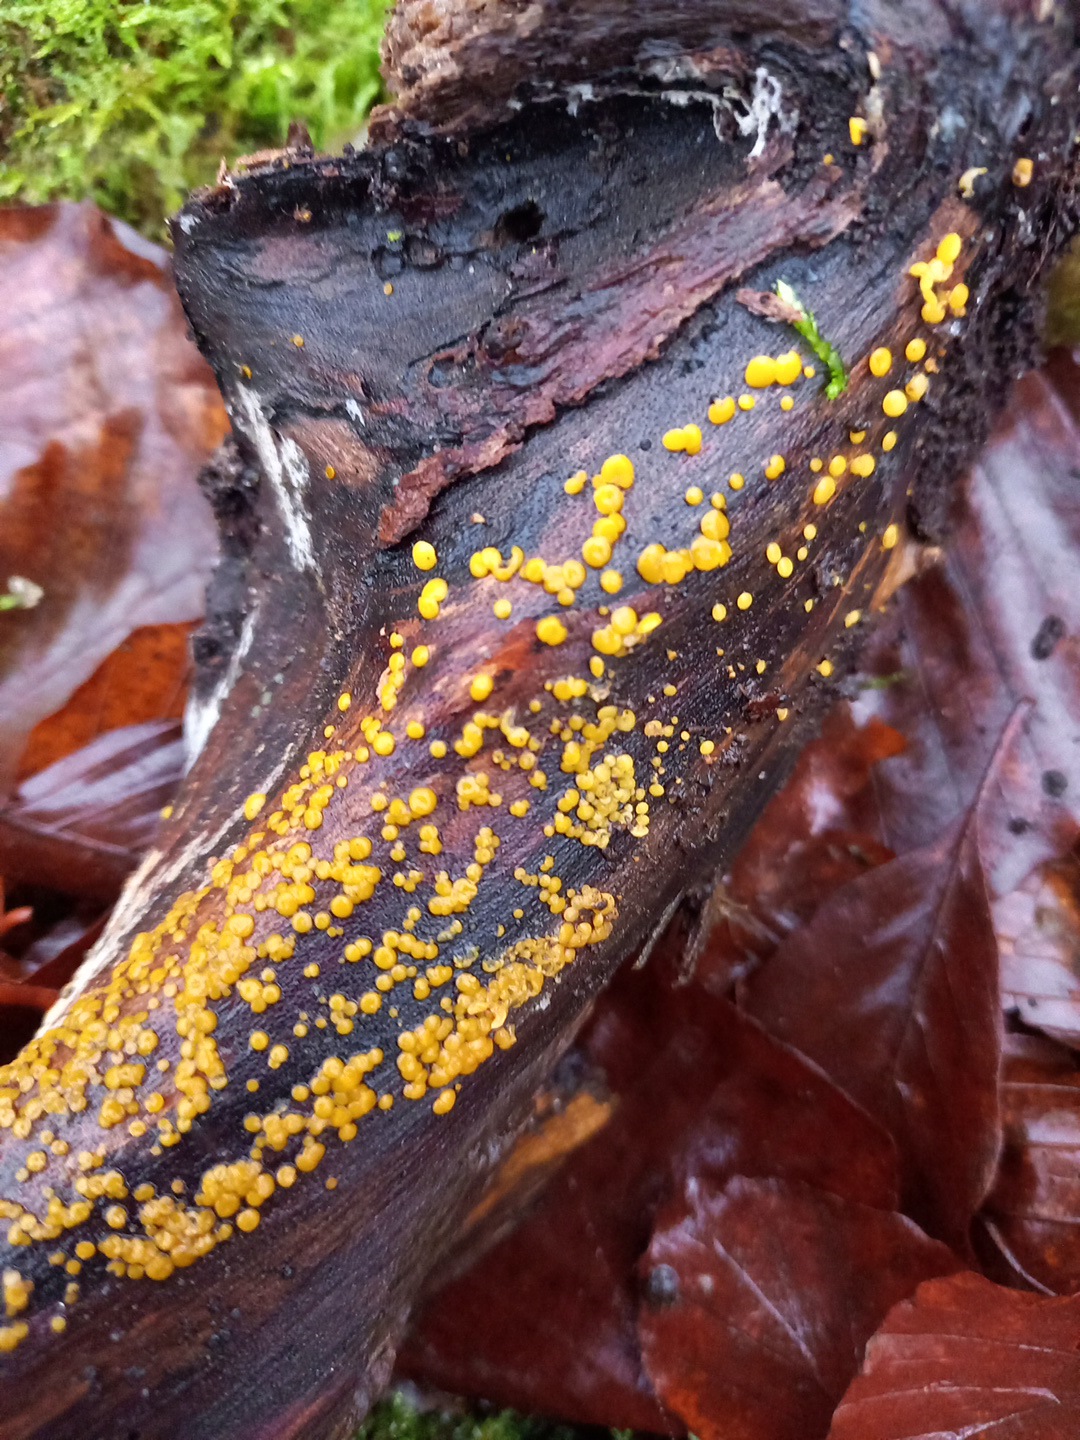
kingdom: Fungi
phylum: Ascomycota
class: Leotiomycetes
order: Helotiales
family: Pezizellaceae
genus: Calycina
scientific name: Calycina citrina
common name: almindelig gulskive
